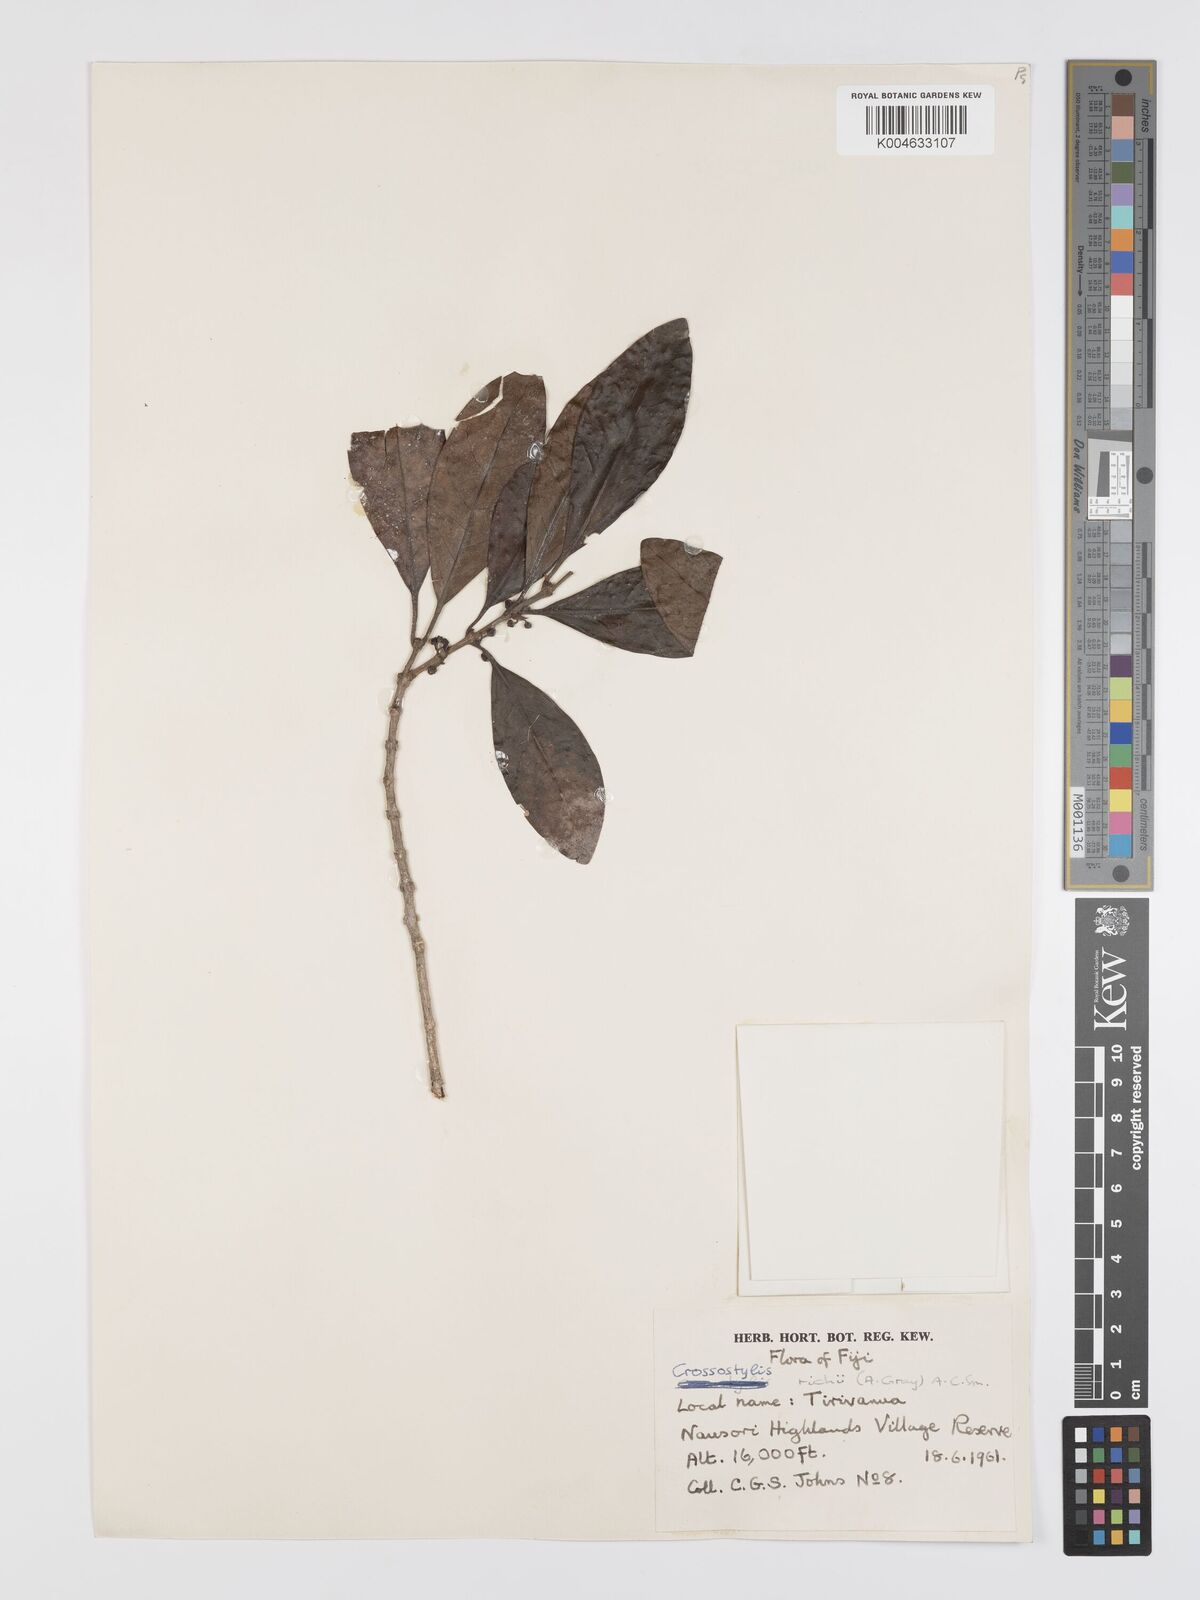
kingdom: Plantae
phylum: Tracheophyta
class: Magnoliopsida
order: Malpighiales
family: Rhizophoraceae
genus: Crossostylis
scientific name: Crossostylis richii
